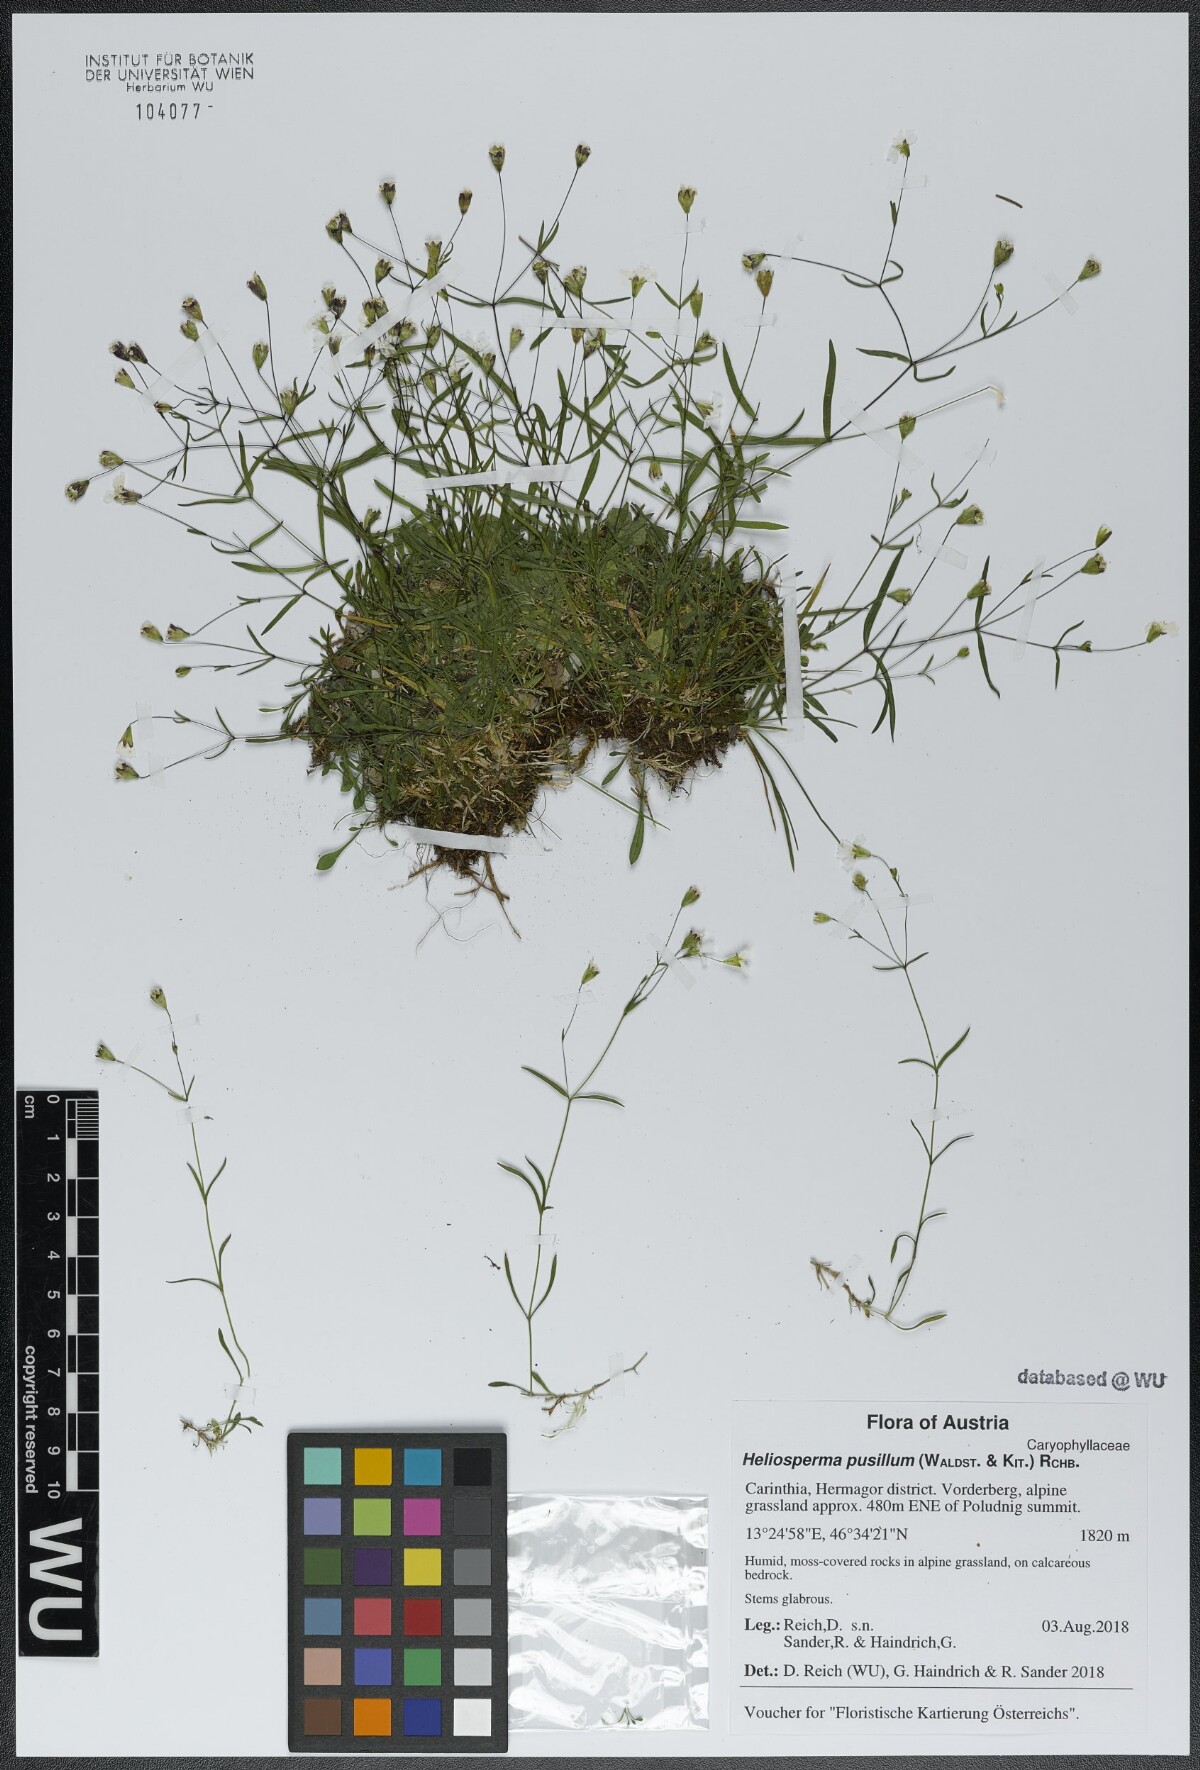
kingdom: Plantae
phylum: Tracheophyta
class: Magnoliopsida
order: Caryophyllales
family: Caryophyllaceae
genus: Heliosperma
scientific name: Heliosperma pusillum
